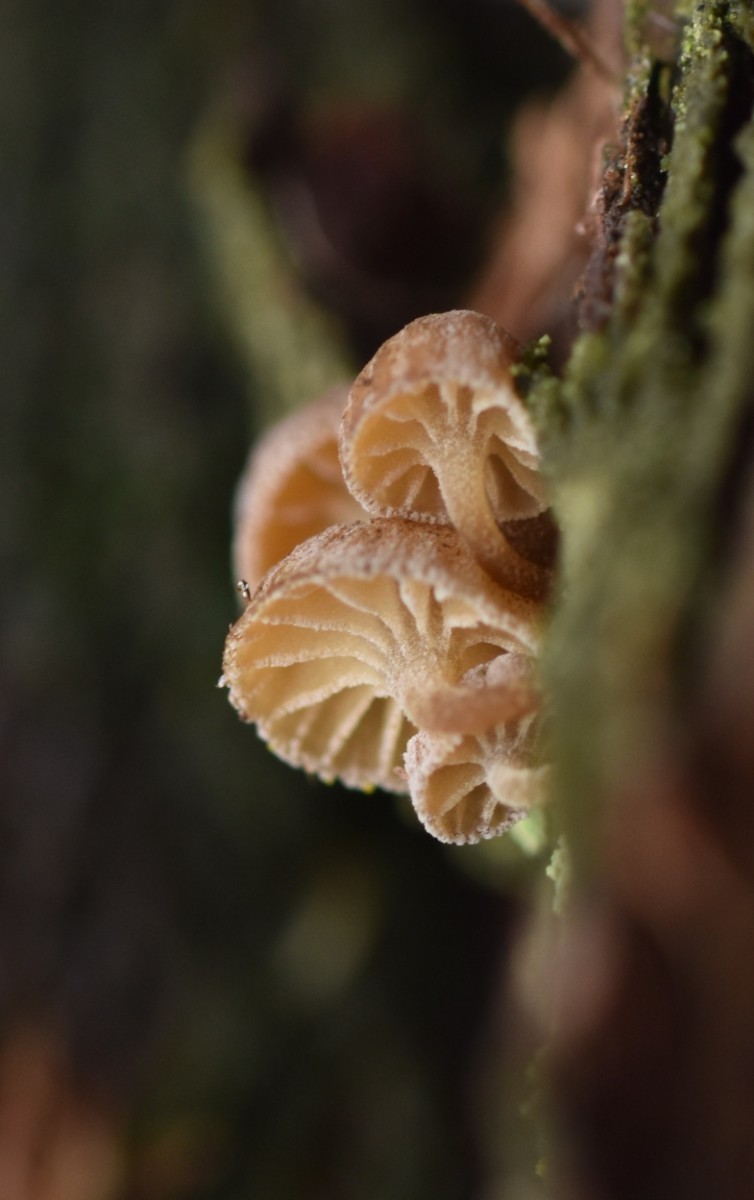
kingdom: Fungi
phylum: Basidiomycota
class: Agaricomycetes
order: Agaricales
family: Mycenaceae
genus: Mycena
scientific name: Mycena juniperina
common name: ene-Huesvamp
